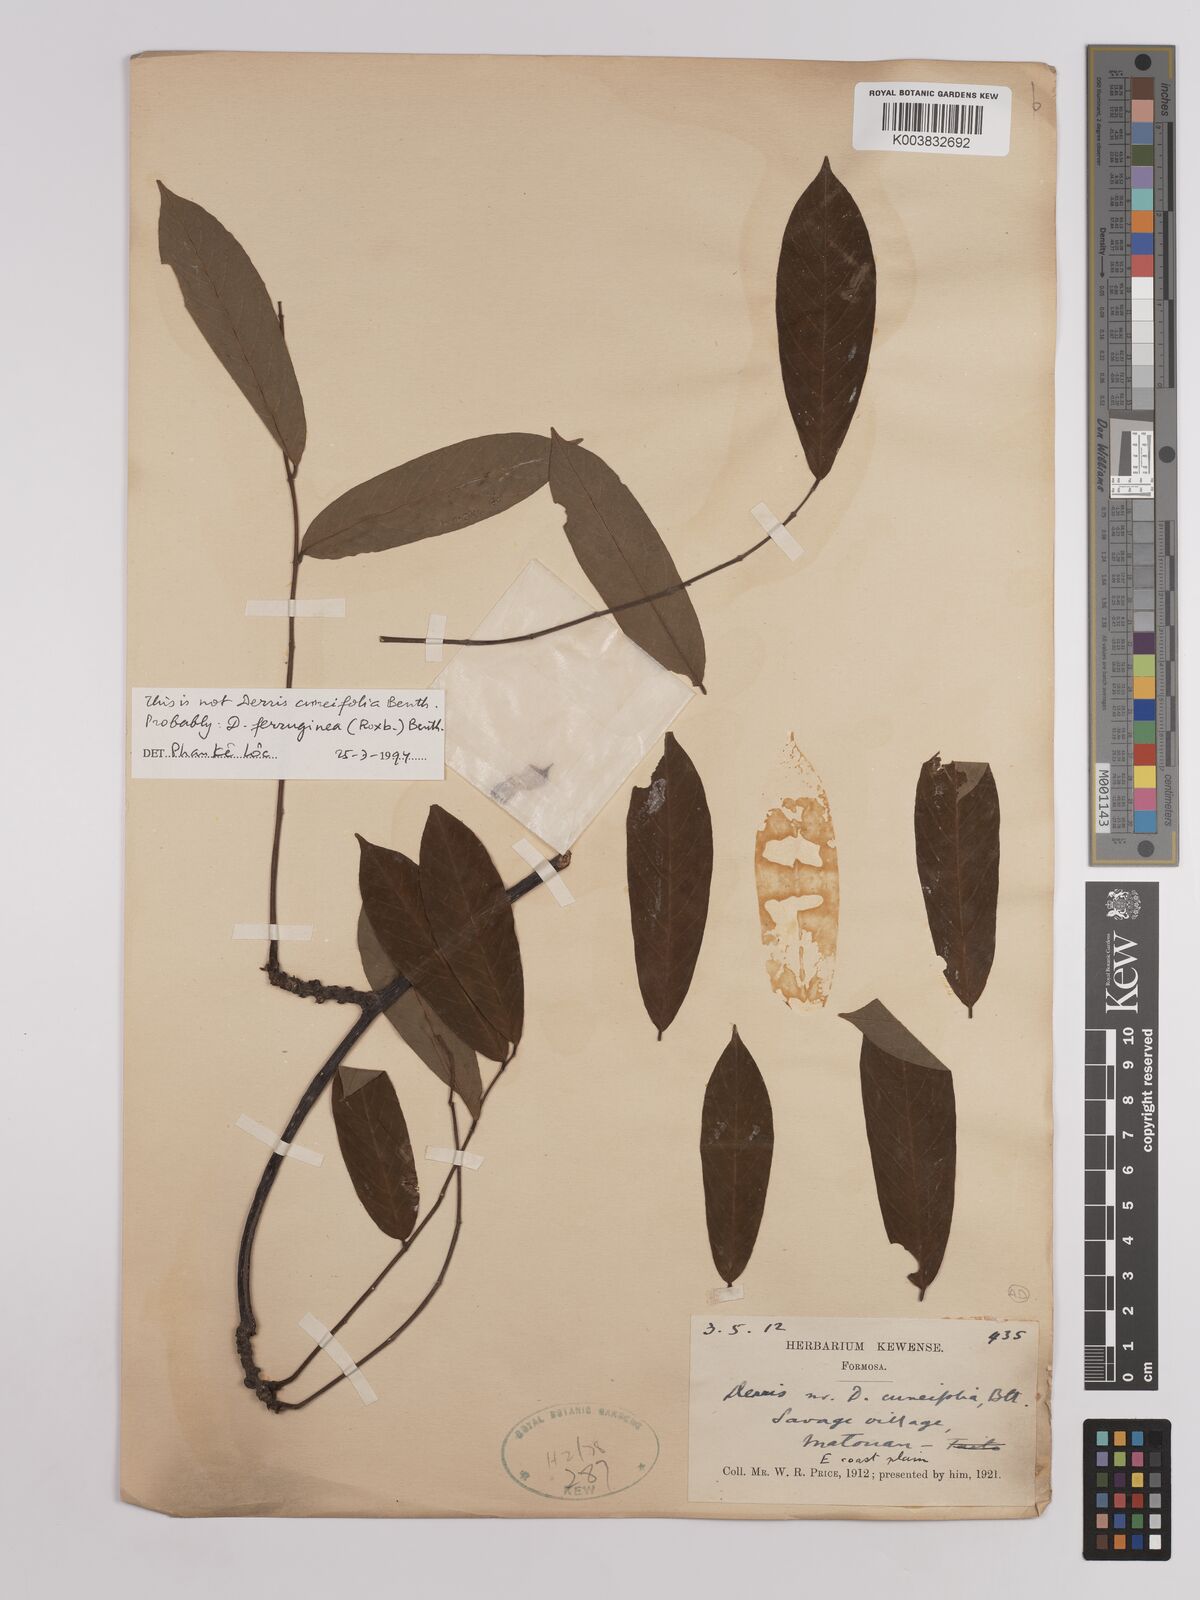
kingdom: Plantae
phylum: Tracheophyta
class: Magnoliopsida
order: Fabales
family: Fabaceae
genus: Derris
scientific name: Derris cuneifolia
